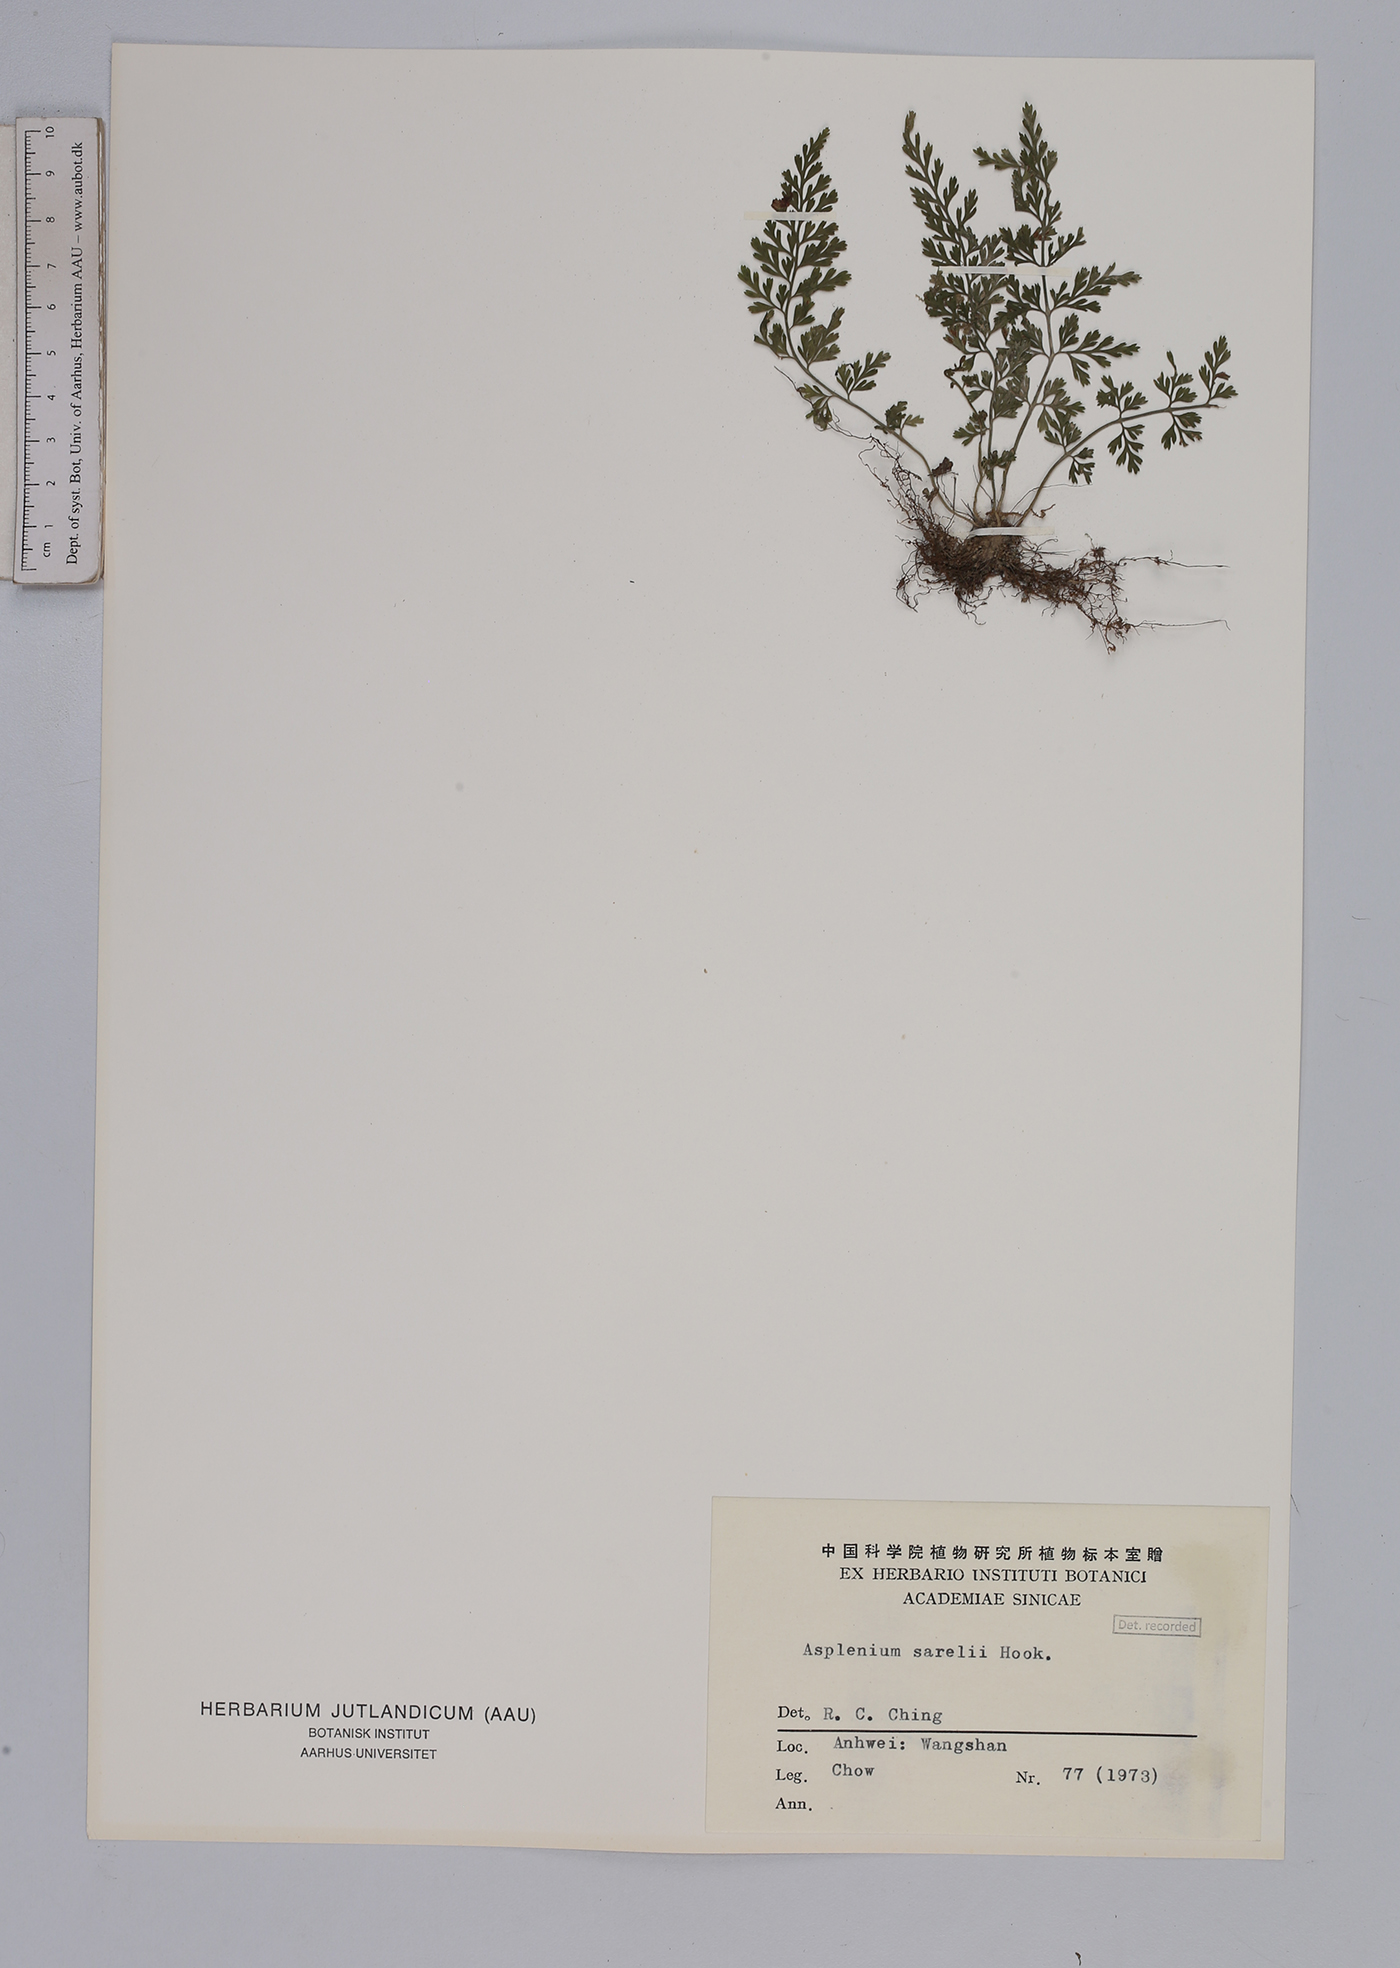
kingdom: Plantae
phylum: Tracheophyta
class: Polypodiopsida
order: Polypodiales
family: Aspleniaceae
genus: Asplenium
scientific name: Asplenium sarelii
